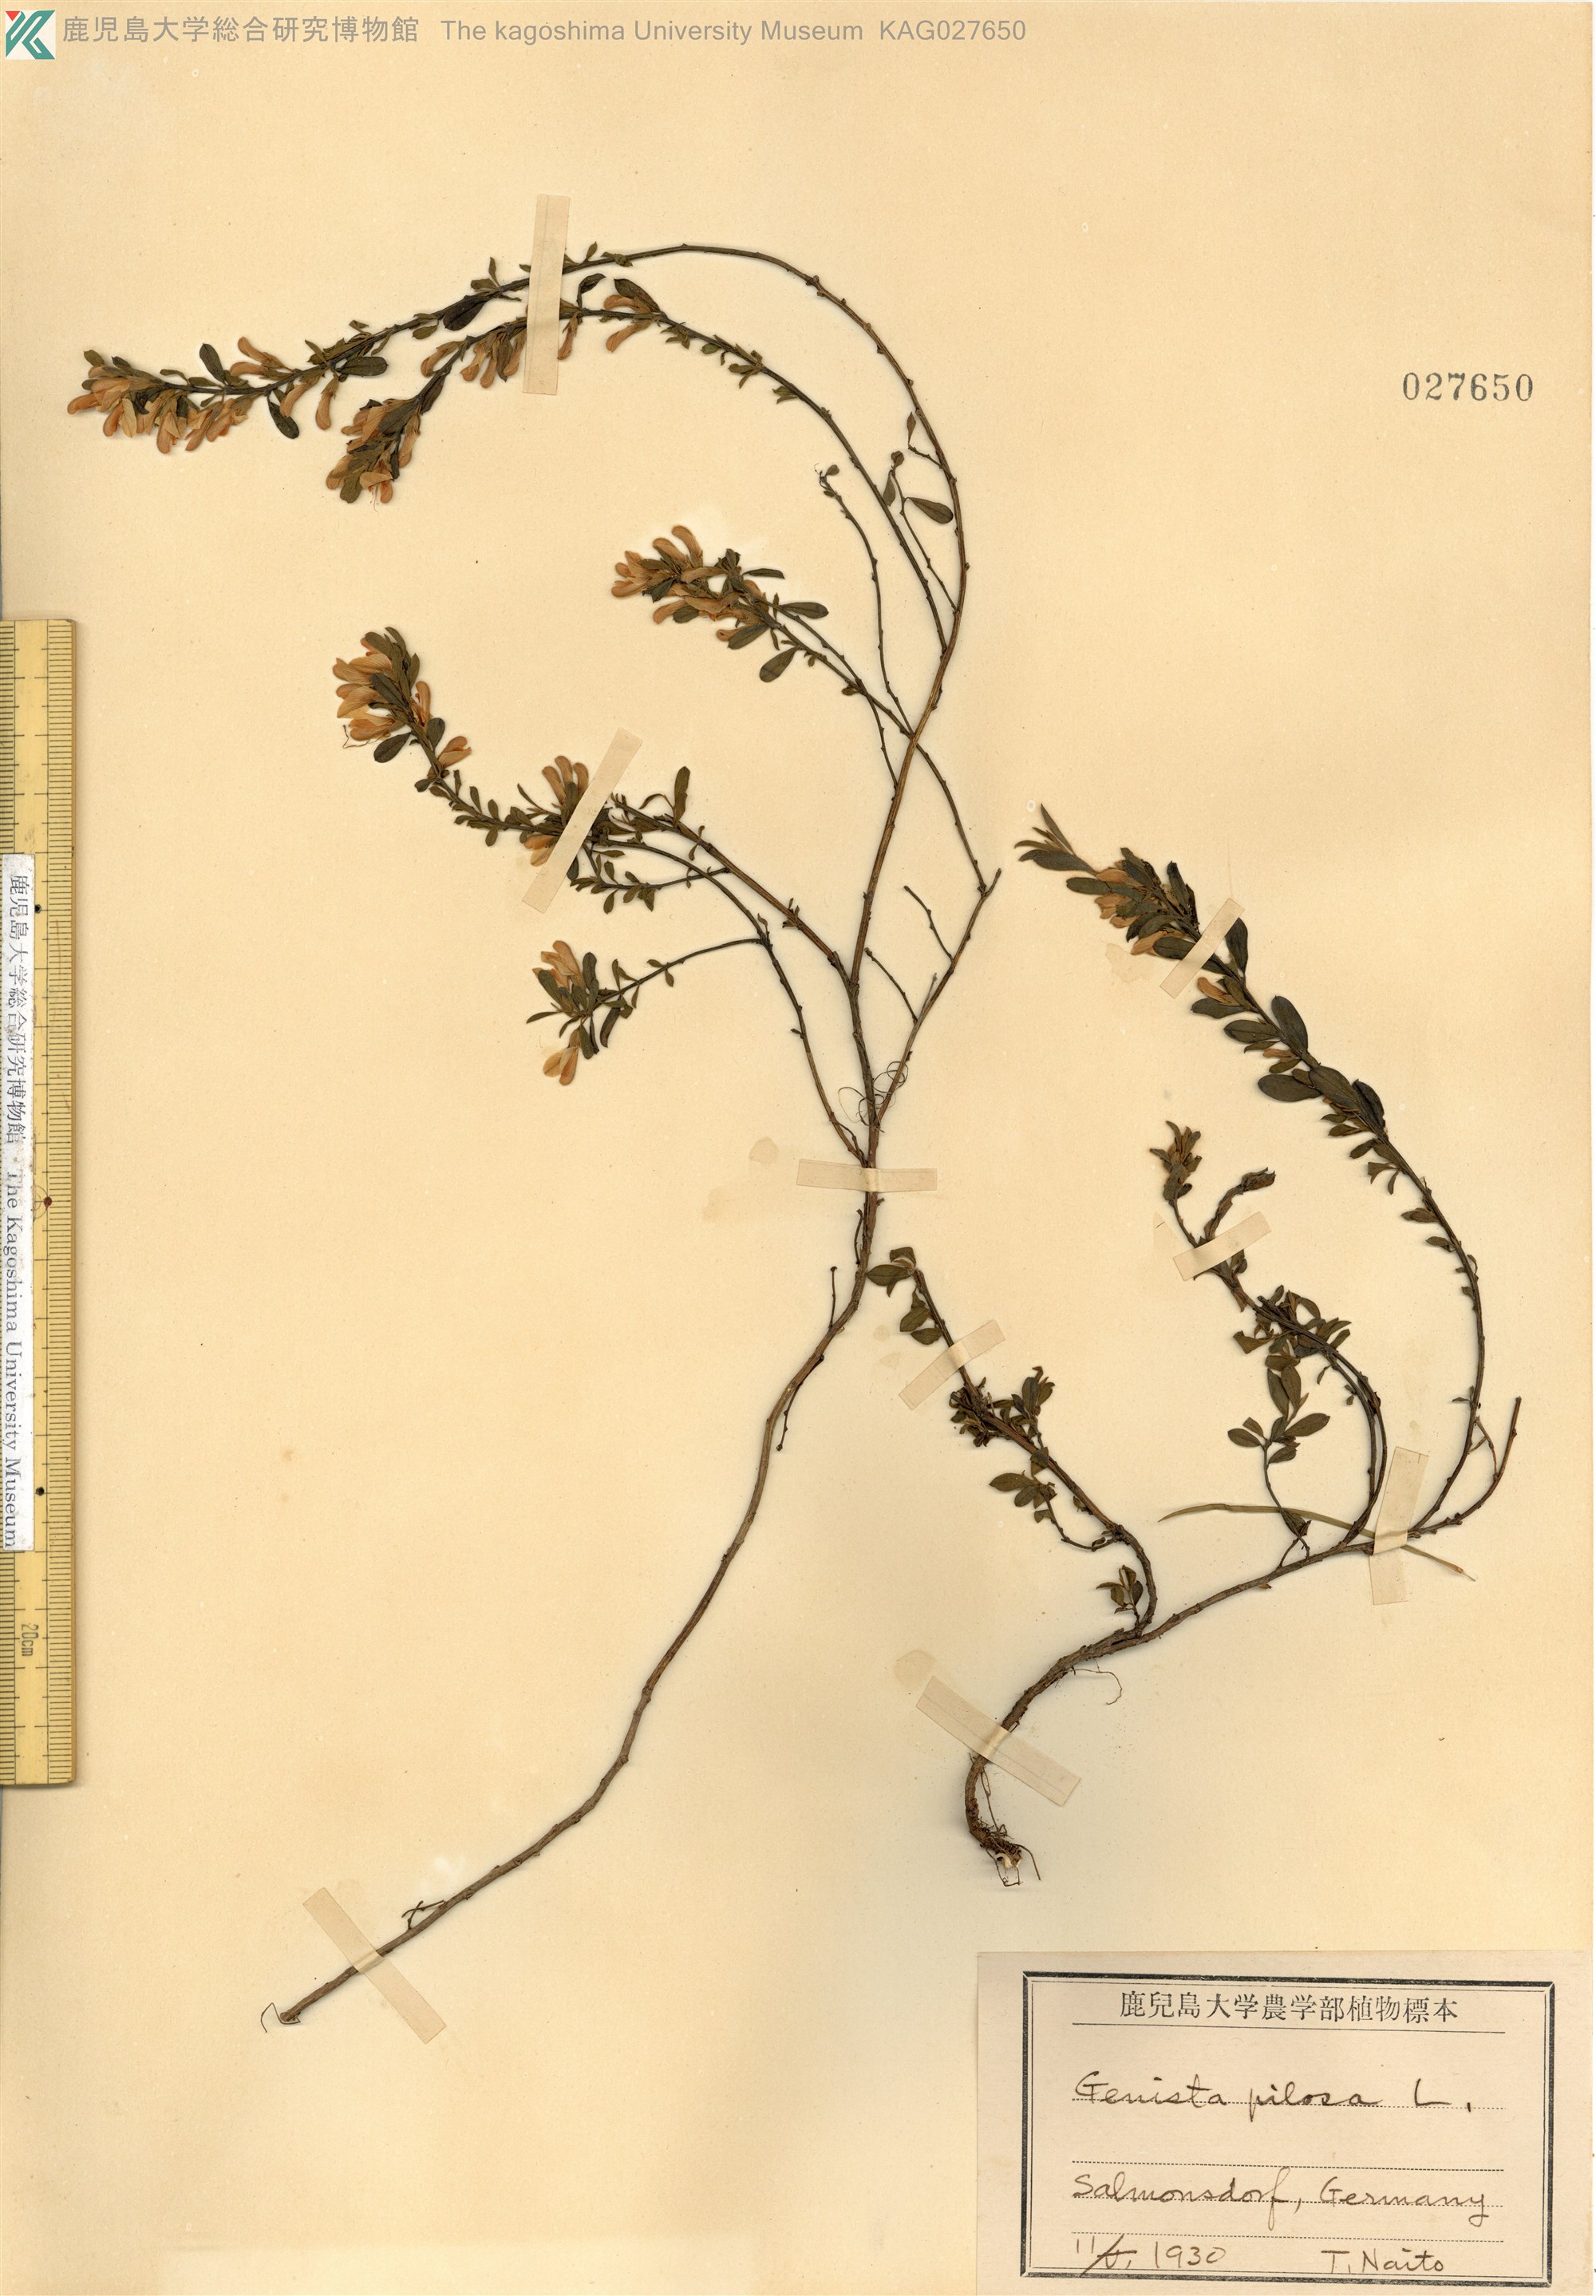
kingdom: Plantae
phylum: Tracheophyta
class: Magnoliopsida
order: Fabales
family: Fabaceae
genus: Genista
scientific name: Genista pilosa
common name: Hairy greenweed
